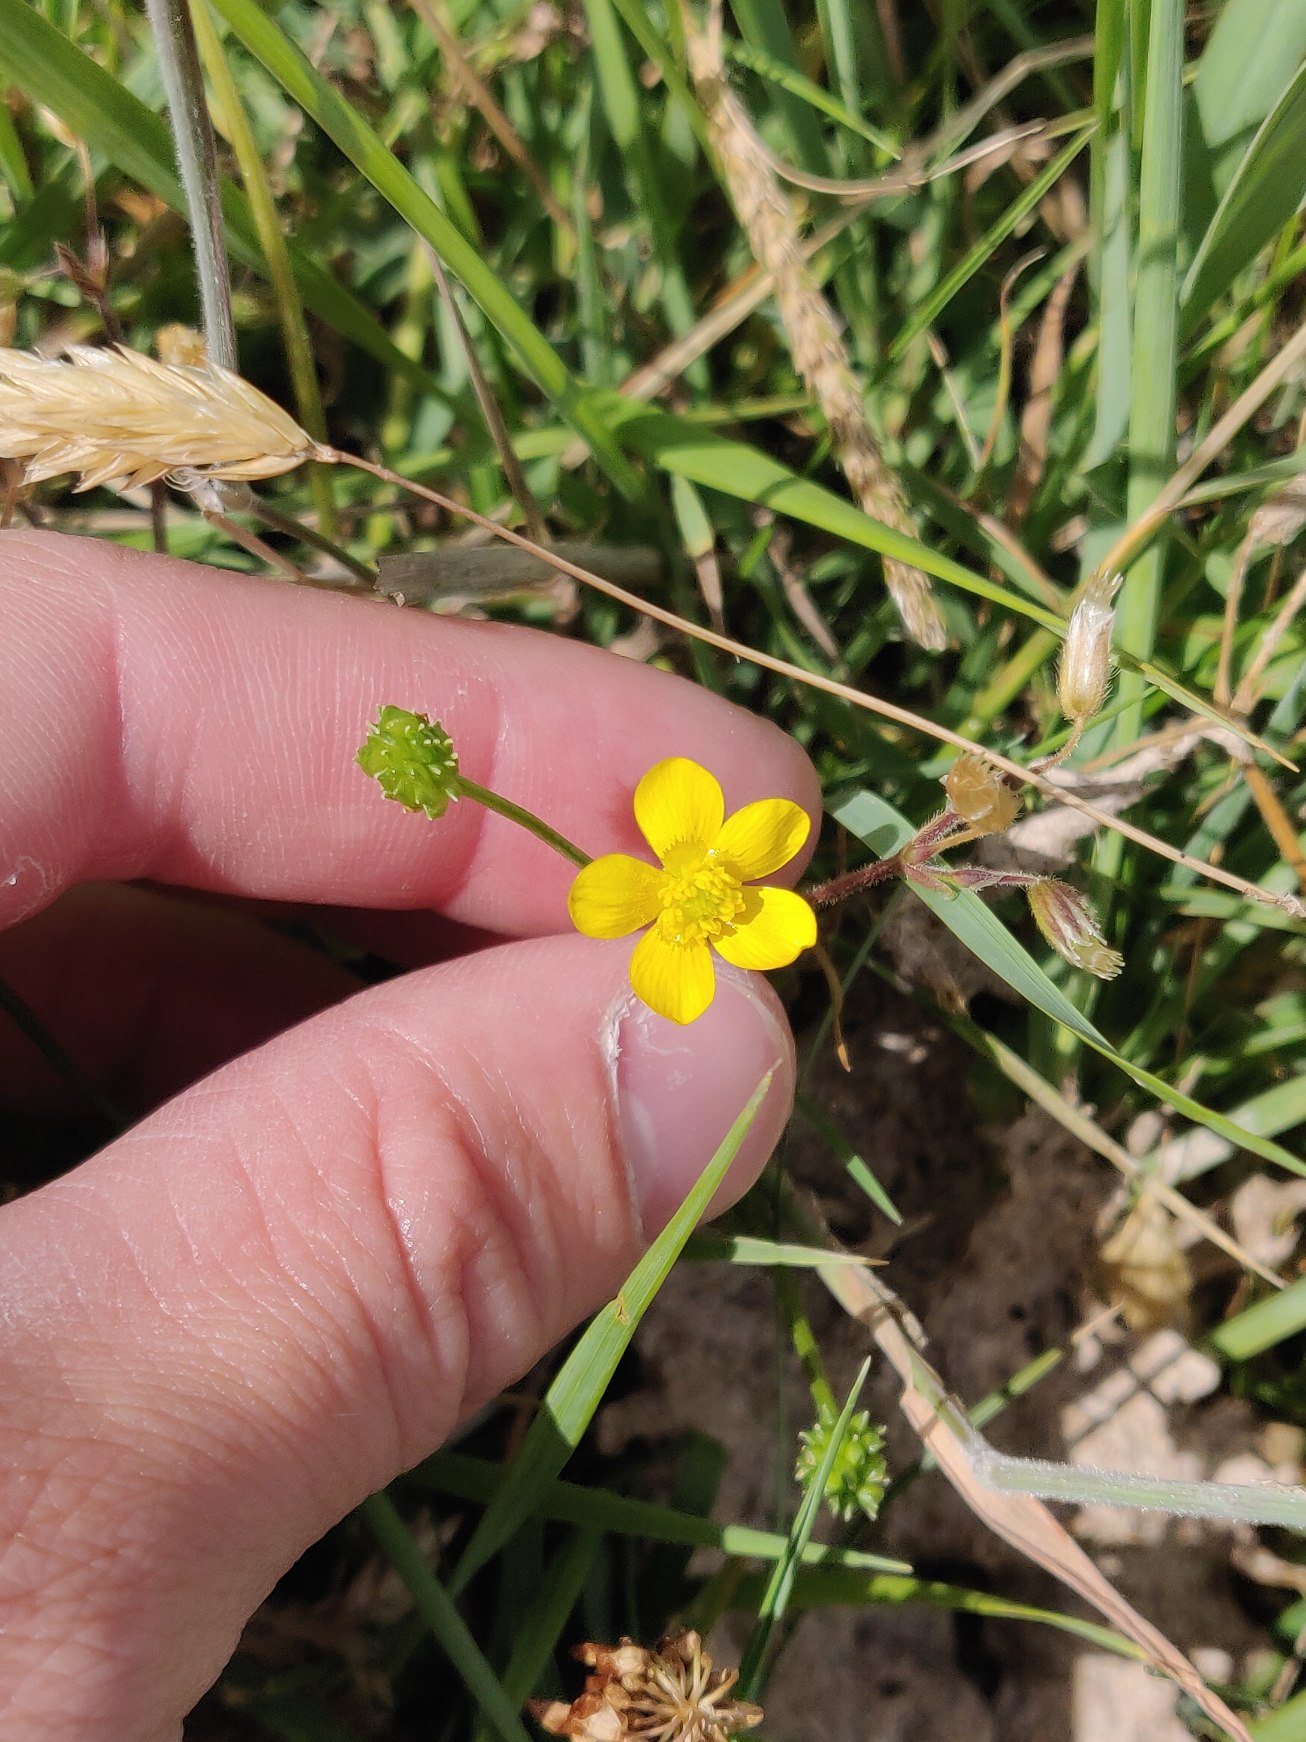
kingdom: Plantae
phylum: Tracheophyta
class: Magnoliopsida
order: Ranunculales
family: Ranunculaceae
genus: Ranunculus
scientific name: Ranunculus sardous
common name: Stivhåret ranunkel
